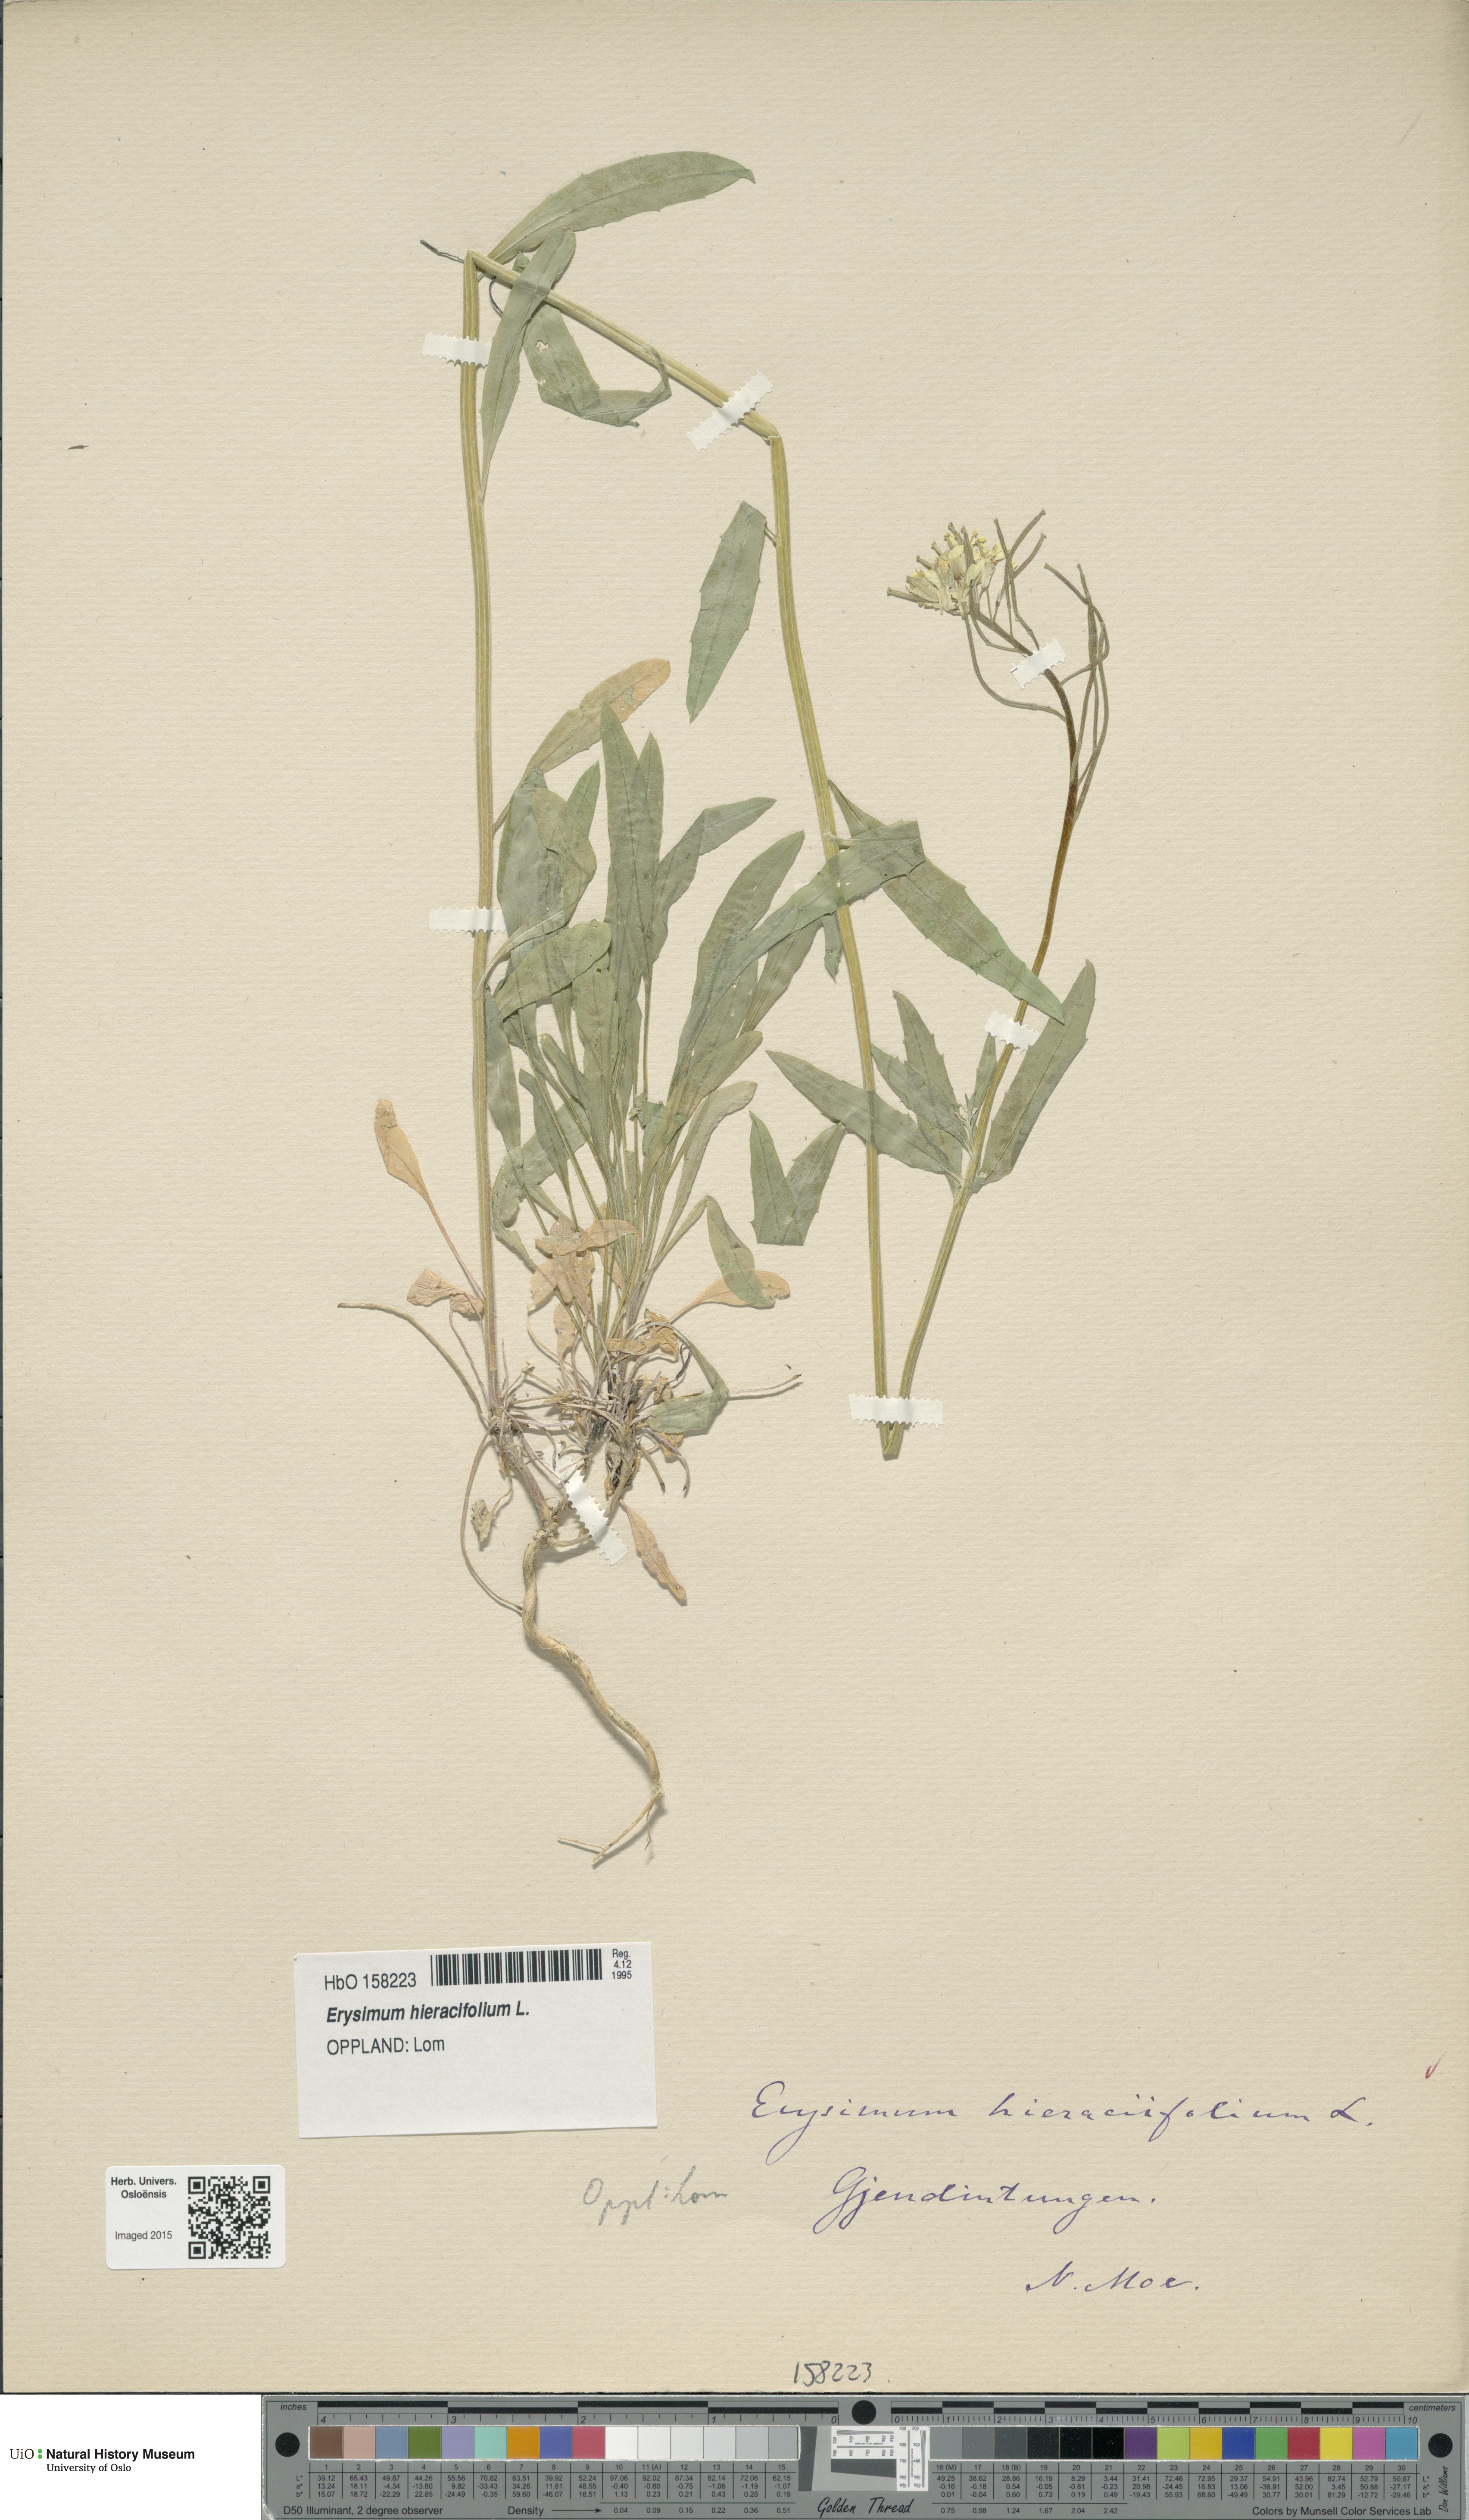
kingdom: Plantae
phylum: Tracheophyta
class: Magnoliopsida
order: Brassicales
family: Brassicaceae
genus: Erysimum
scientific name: Erysimum virgatum
